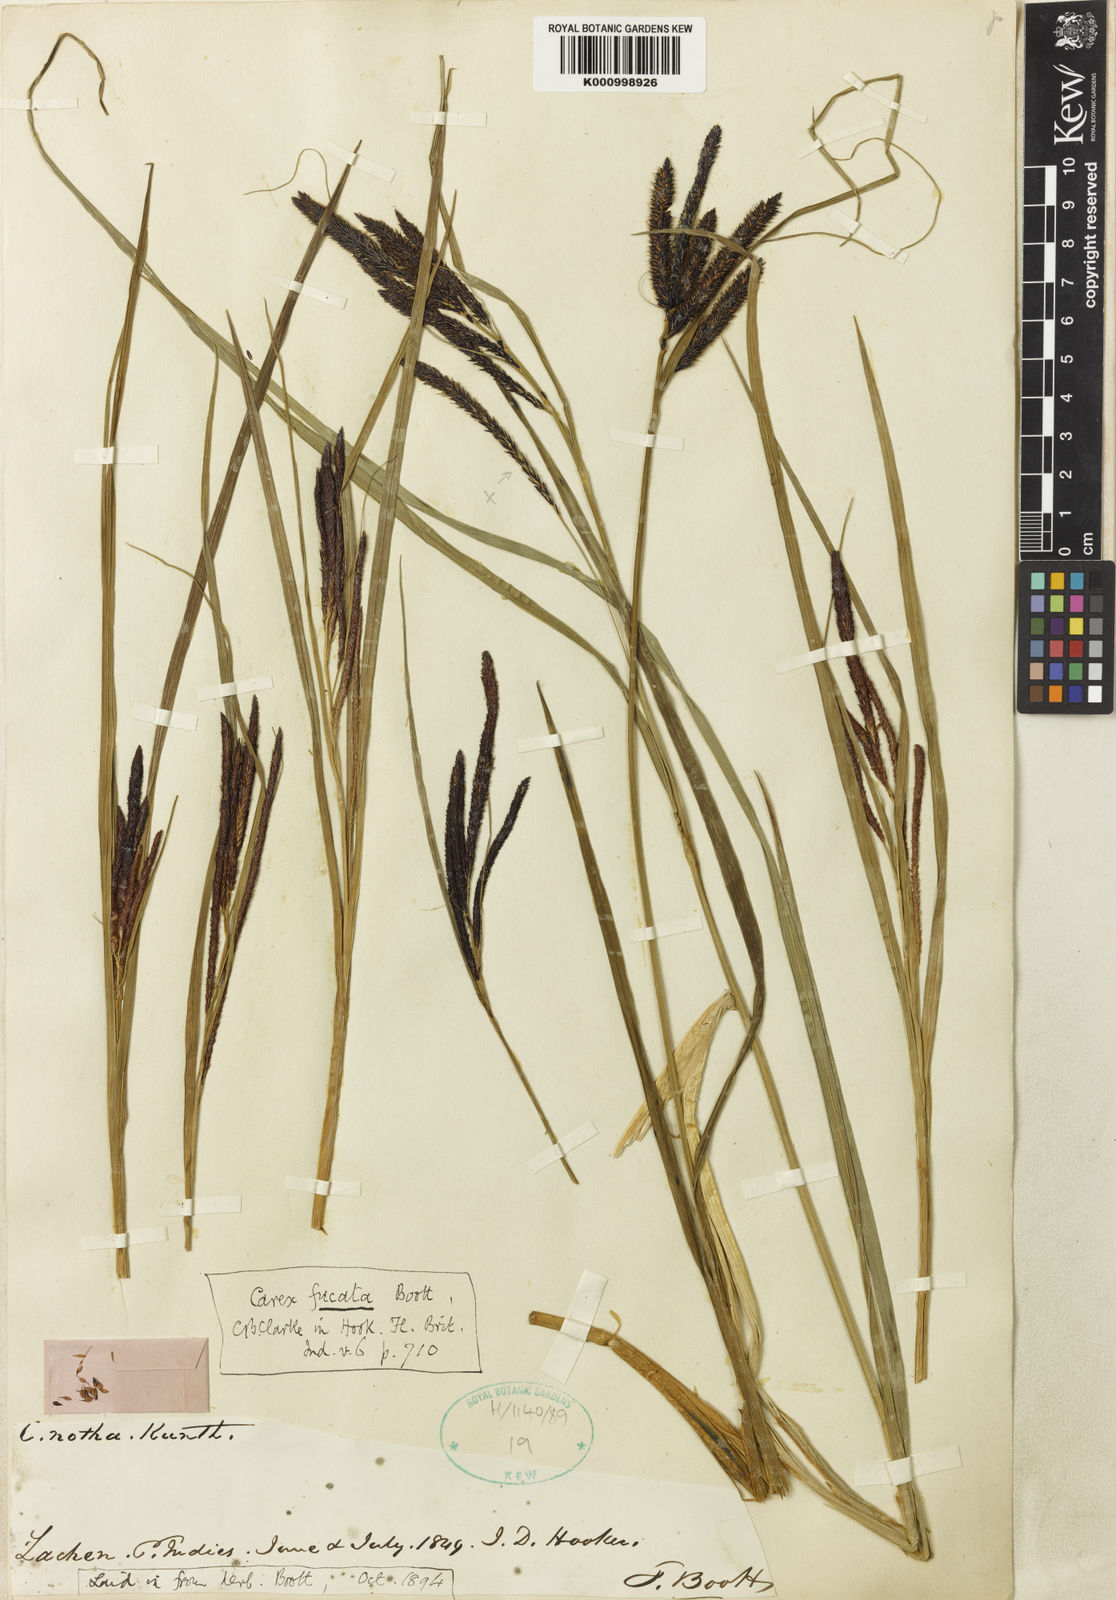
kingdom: Plantae
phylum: Tracheophyta
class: Liliopsida
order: Poales
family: Cyperaceae
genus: Carex
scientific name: Carex fucata
